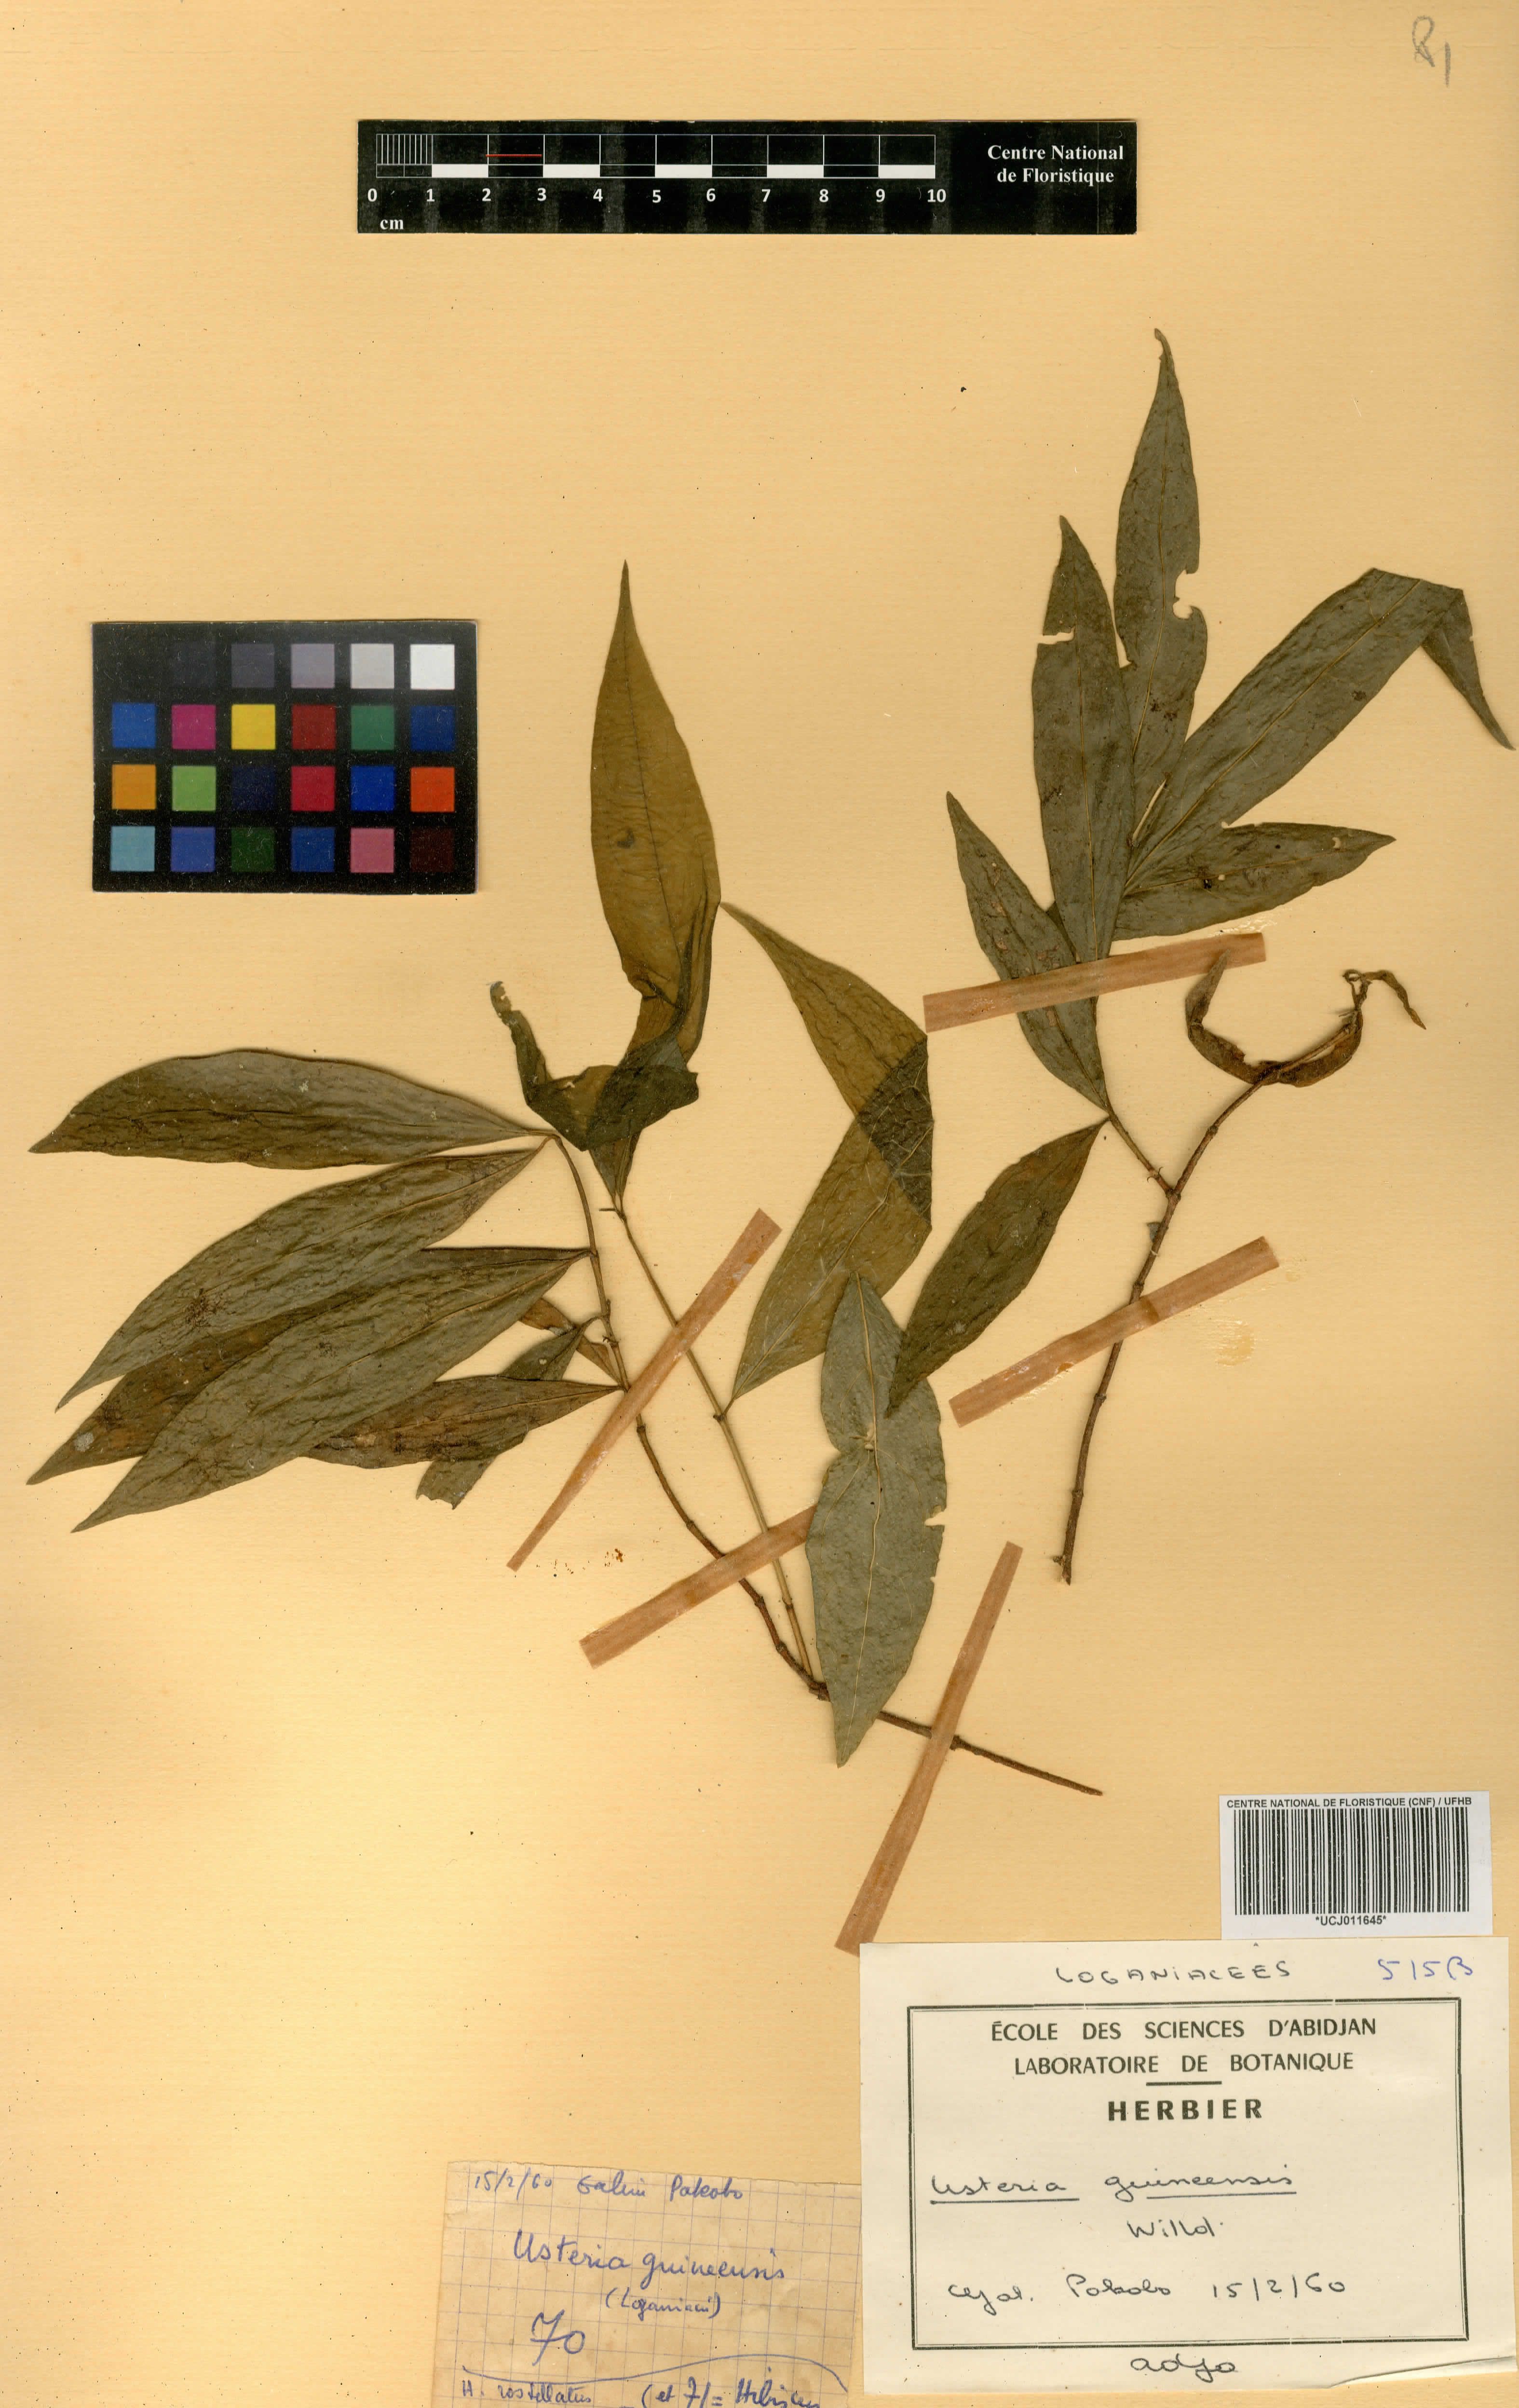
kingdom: Plantae
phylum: Tracheophyta
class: Magnoliopsida
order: Gentianales
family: Loganiaceae
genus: Usteria
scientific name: Usteria guineensis
